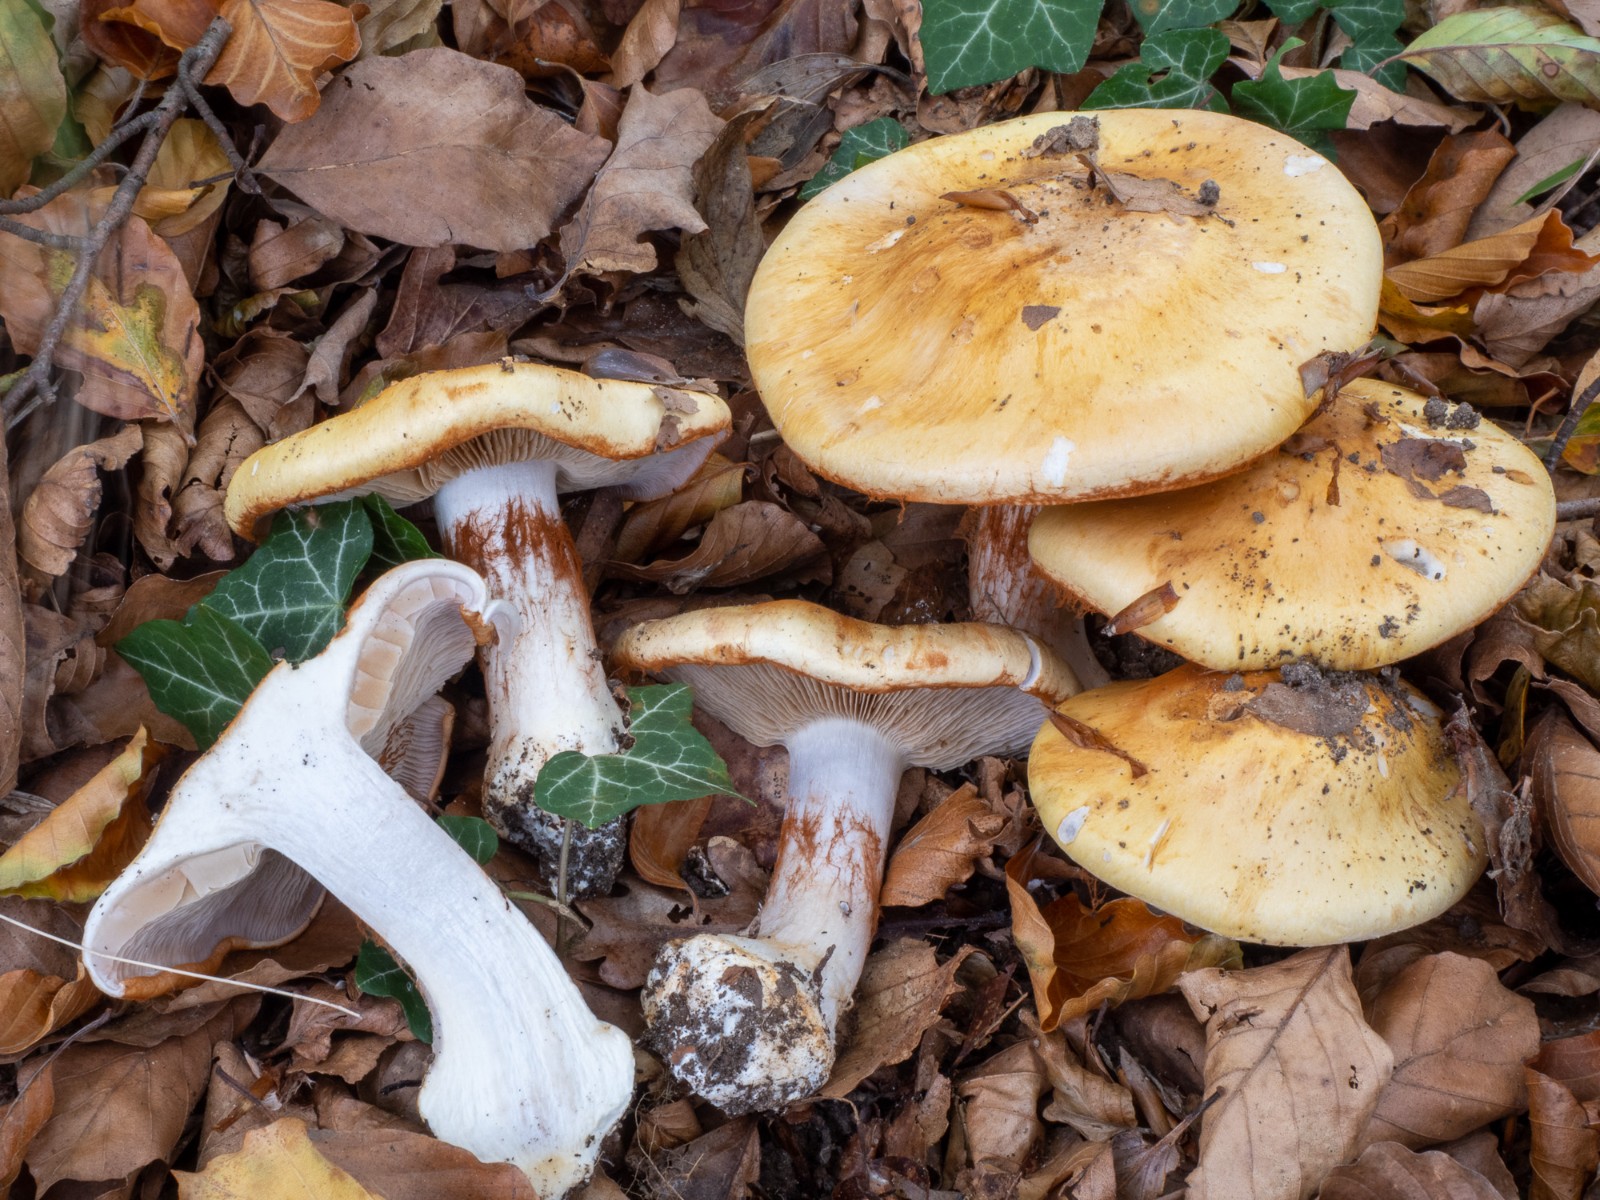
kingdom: Fungi
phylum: Basidiomycota
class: Agaricomycetes
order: Agaricales
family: Cortinariaceae
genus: Phlegmacium
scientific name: Phlegmacium caesiocortinatum
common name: rundsporet slørhat
